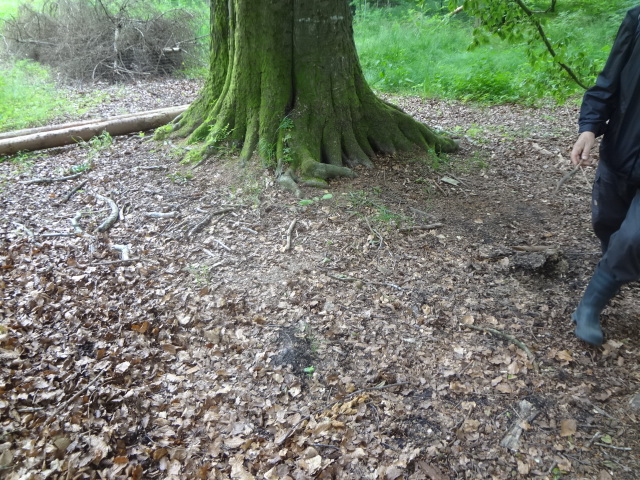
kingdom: Fungi
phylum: Basidiomycota
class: Agaricomycetes
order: Boletales
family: Paxillaceae
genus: Melanogaster
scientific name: Melanogaster broomeanus
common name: broget slimtrøffel
